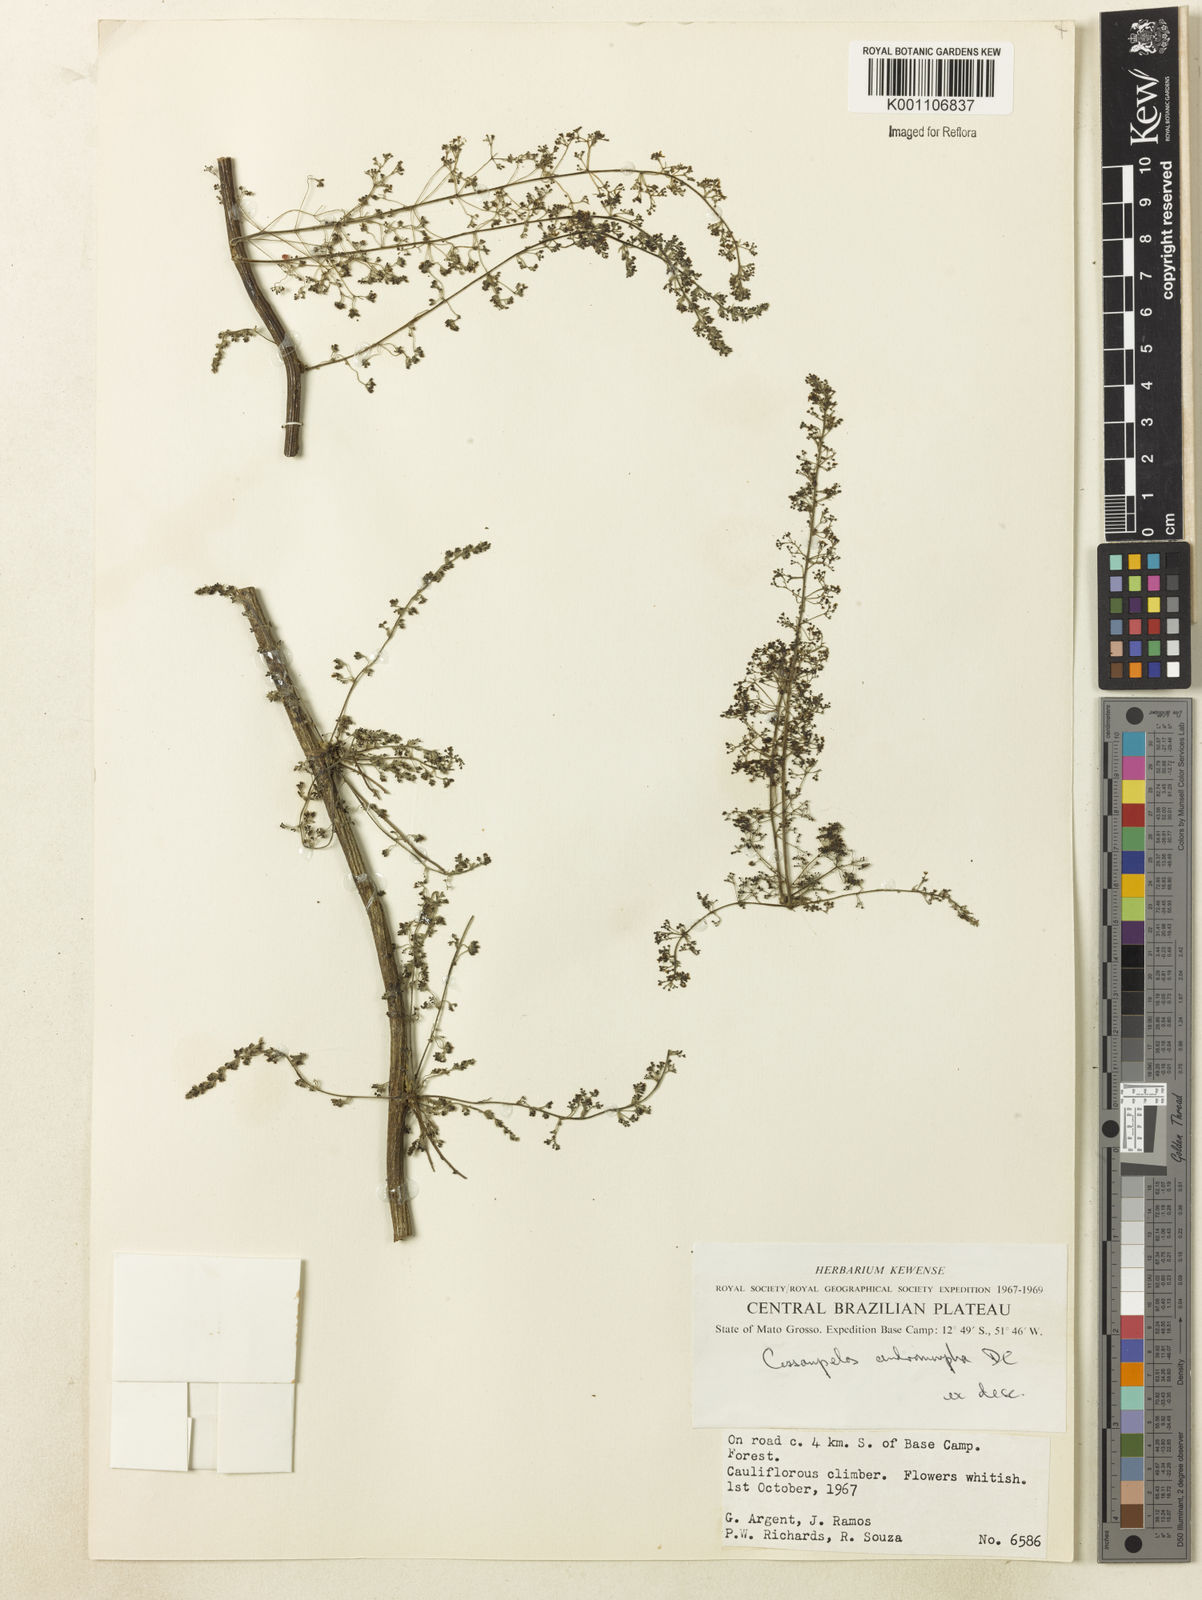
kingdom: Plantae
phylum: Tracheophyta
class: Magnoliopsida
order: Ranunculales
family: Menispermaceae
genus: Cissampelos
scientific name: Cissampelos andromorpha
